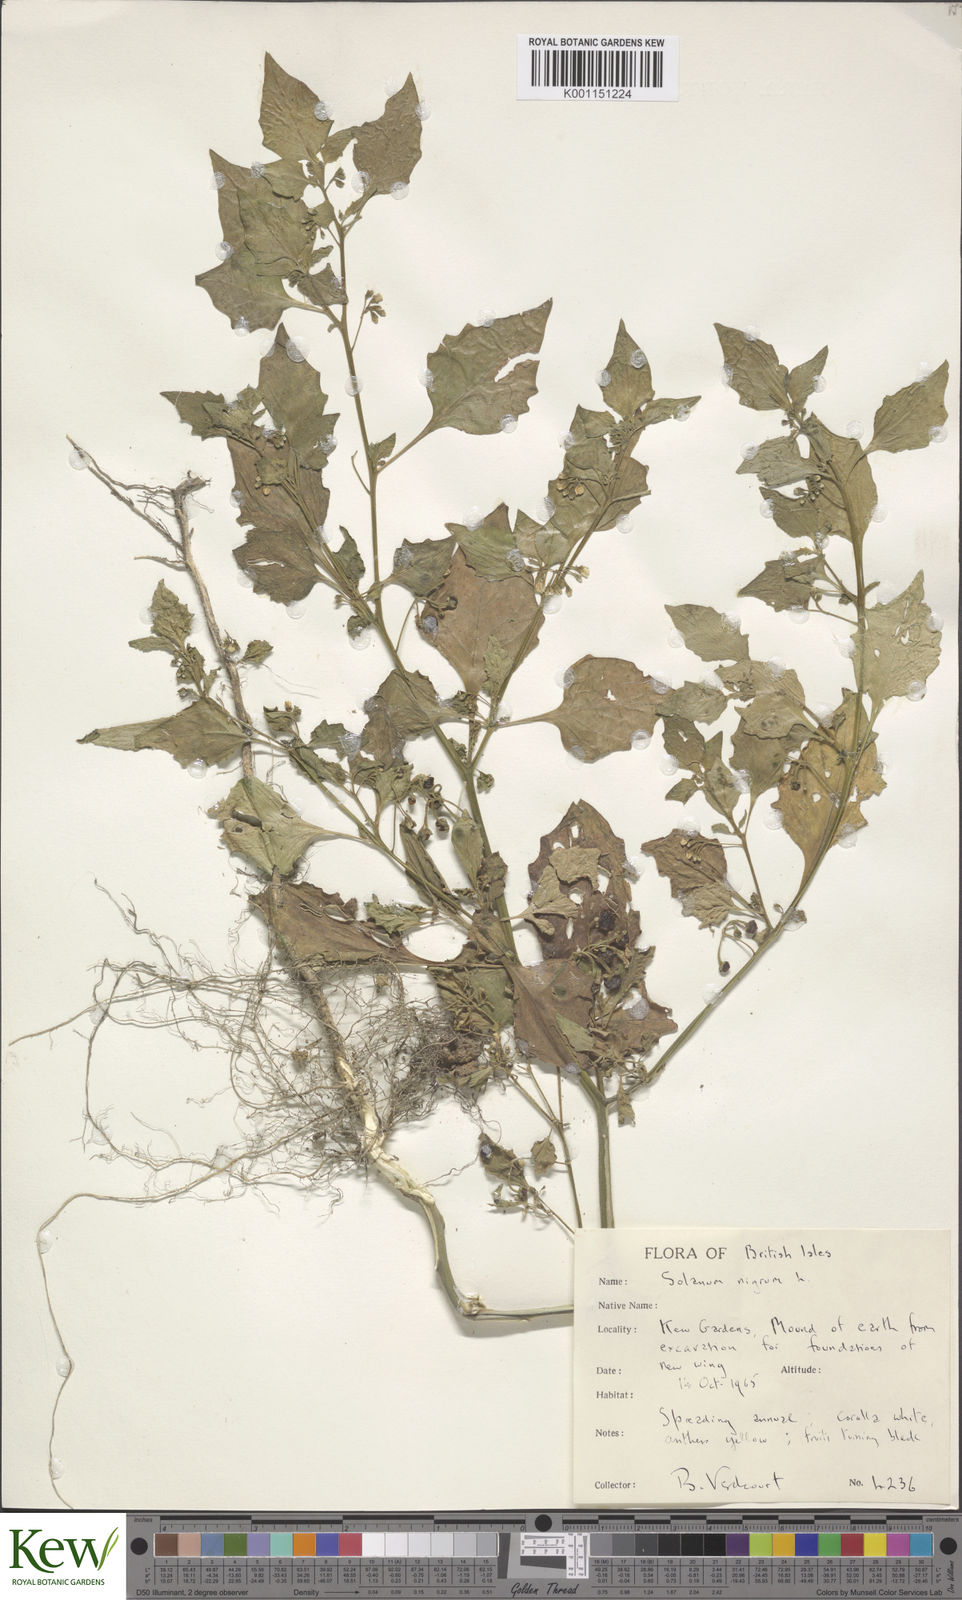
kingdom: Plantae
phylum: Tracheophyta
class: Magnoliopsida
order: Solanales
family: Solanaceae
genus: Solanum
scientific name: Solanum nigrum
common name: Black nightshade
